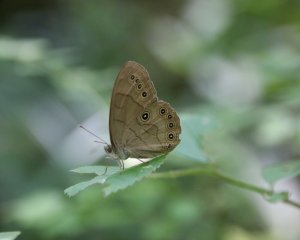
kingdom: Animalia
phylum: Arthropoda
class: Insecta
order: Lepidoptera
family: Nymphalidae
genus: Lethe
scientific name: Lethe eurydice
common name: Appalachian Eyed Brown
